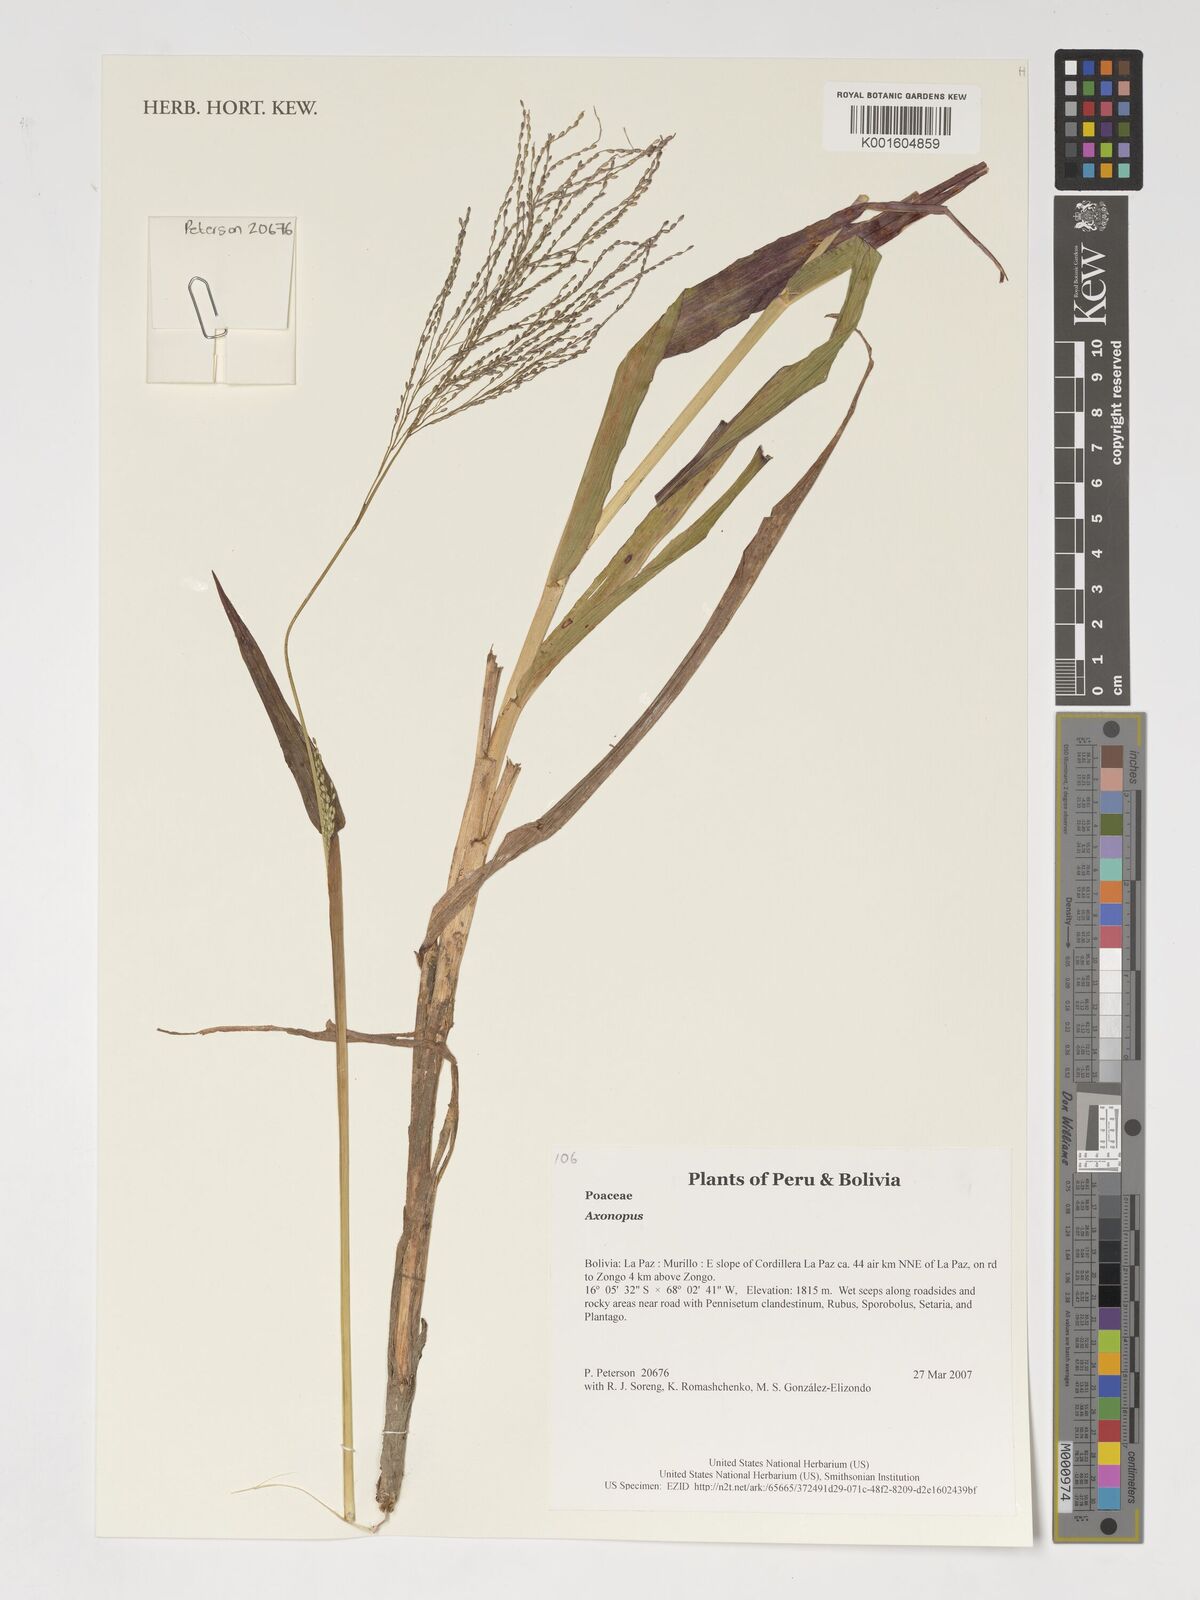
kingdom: Plantae
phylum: Tracheophyta
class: Liliopsida
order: Poales
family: Poaceae
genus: Axonopus
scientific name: Axonopus
